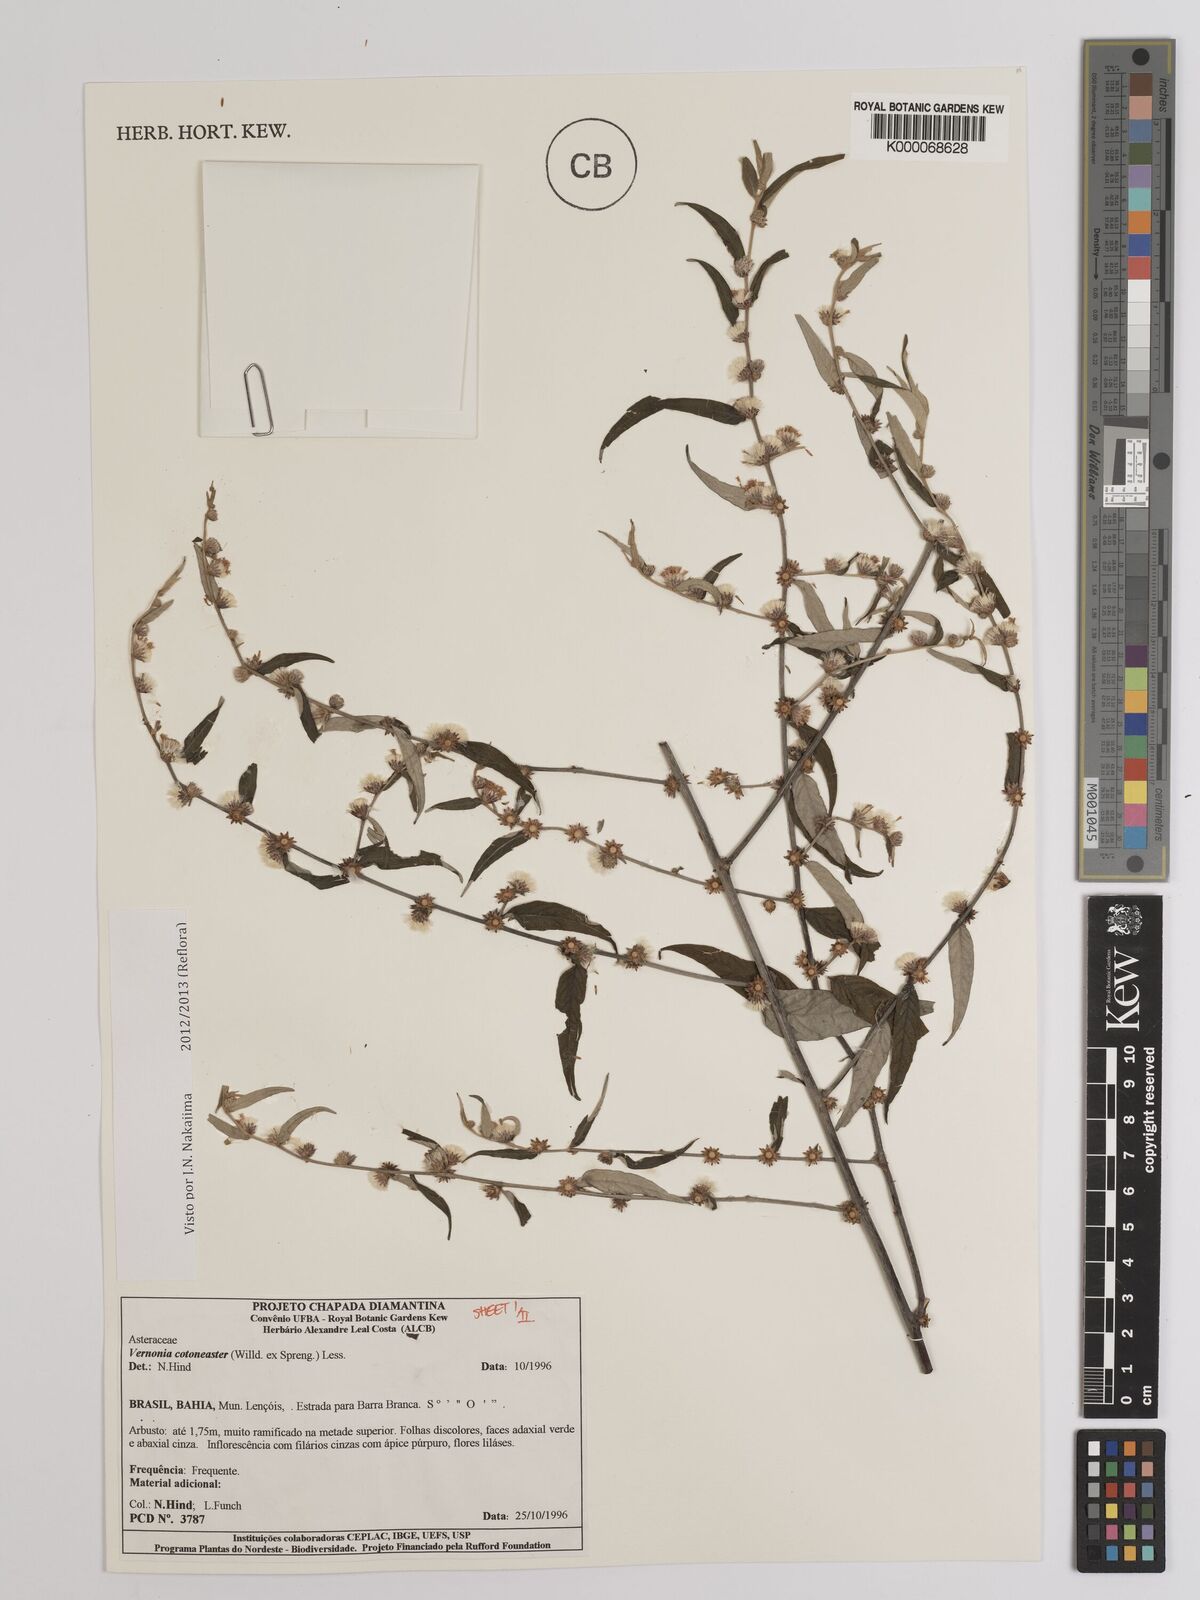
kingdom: Plantae
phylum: Tracheophyta
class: Magnoliopsida
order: Asterales
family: Asteraceae
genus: Lepidaploa
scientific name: Lepidaploa cotoneaster
